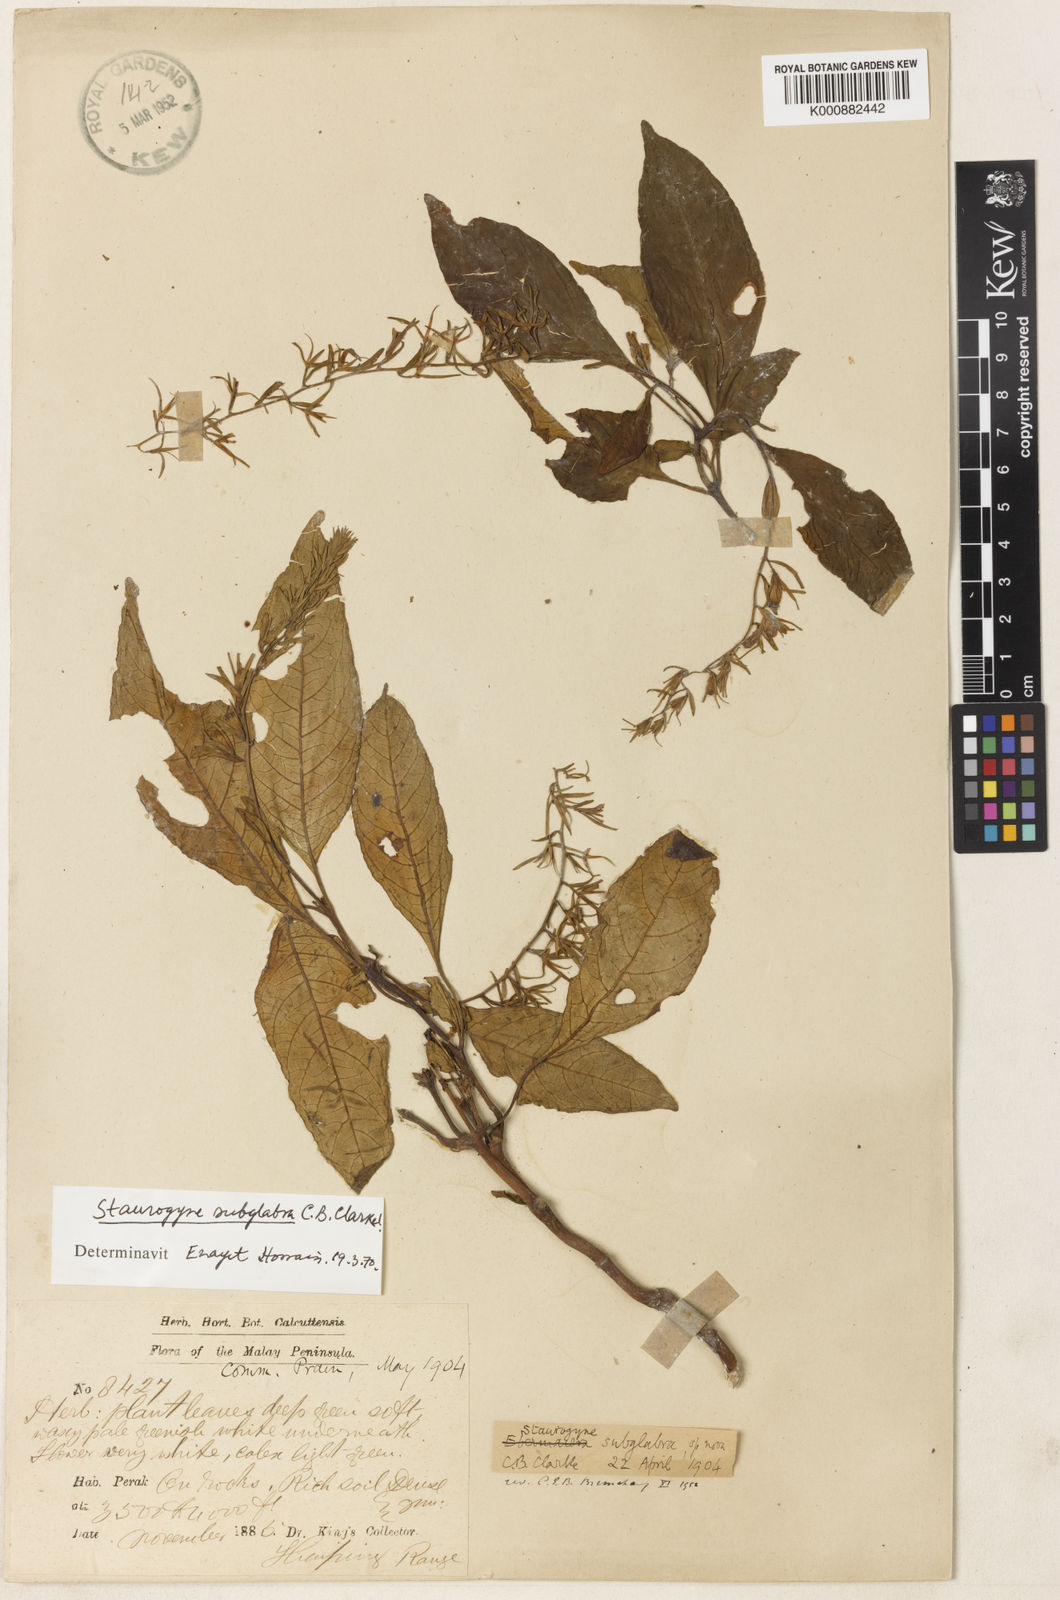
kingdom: Plantae
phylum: Tracheophyta
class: Magnoliopsida
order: Lamiales
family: Acanthaceae
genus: Staurogyne
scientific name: Staurogyne subglabra
